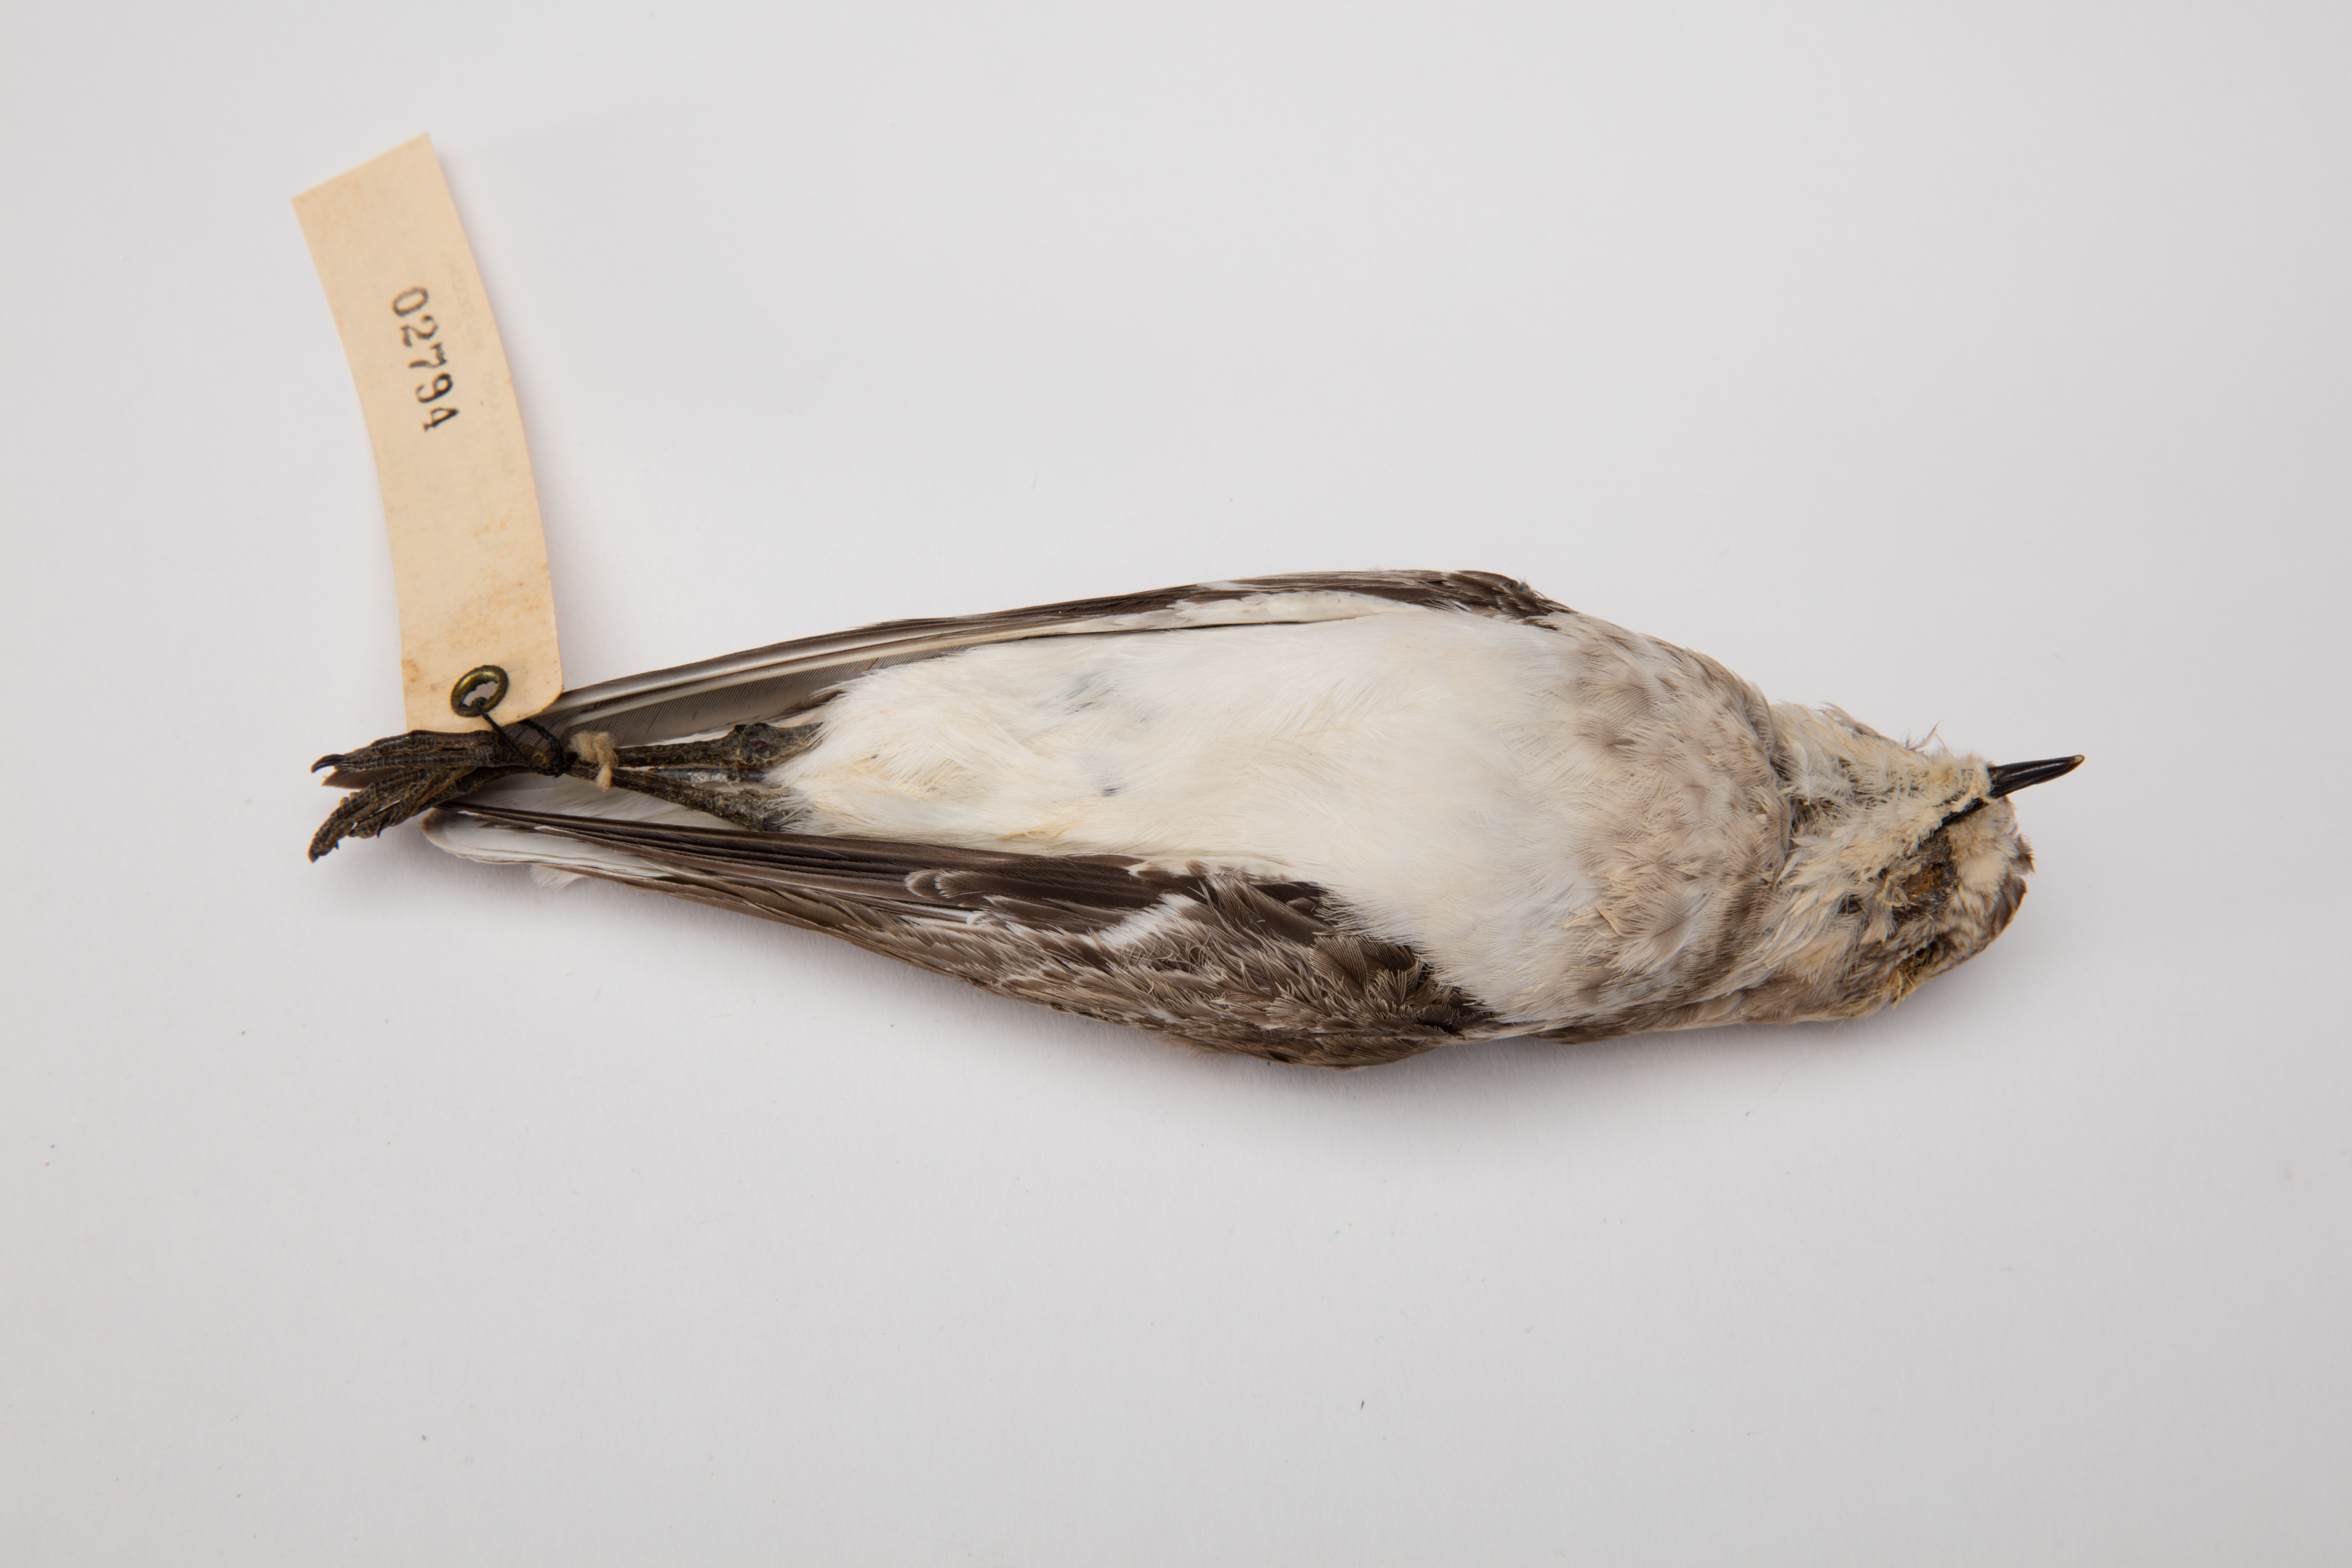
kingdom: Animalia
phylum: Chordata
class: Aves
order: Charadriiformes
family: Charadriidae
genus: Charadrius
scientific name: Charadrius bicinctus
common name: Double-banded plover
